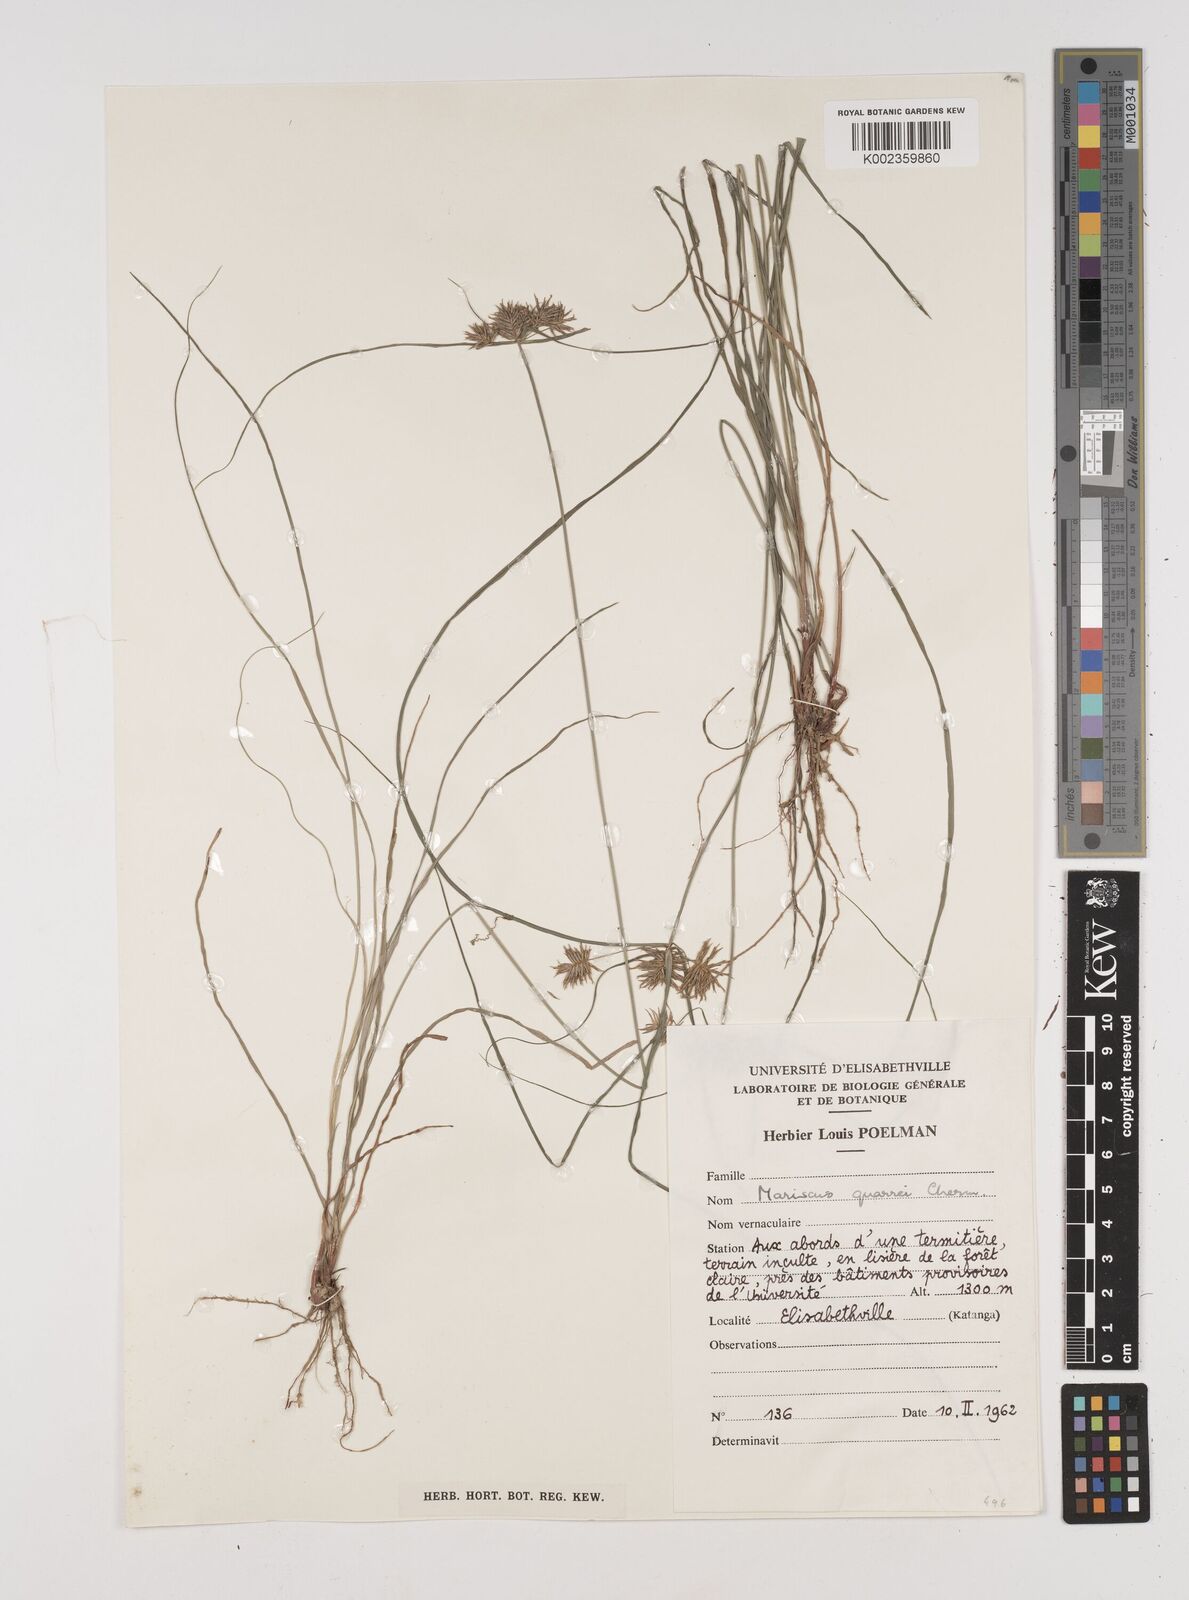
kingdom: Plantae
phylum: Tracheophyta
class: Liliopsida
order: Poales
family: Cyperaceae
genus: Cyperus
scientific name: Cyperus tenuis
